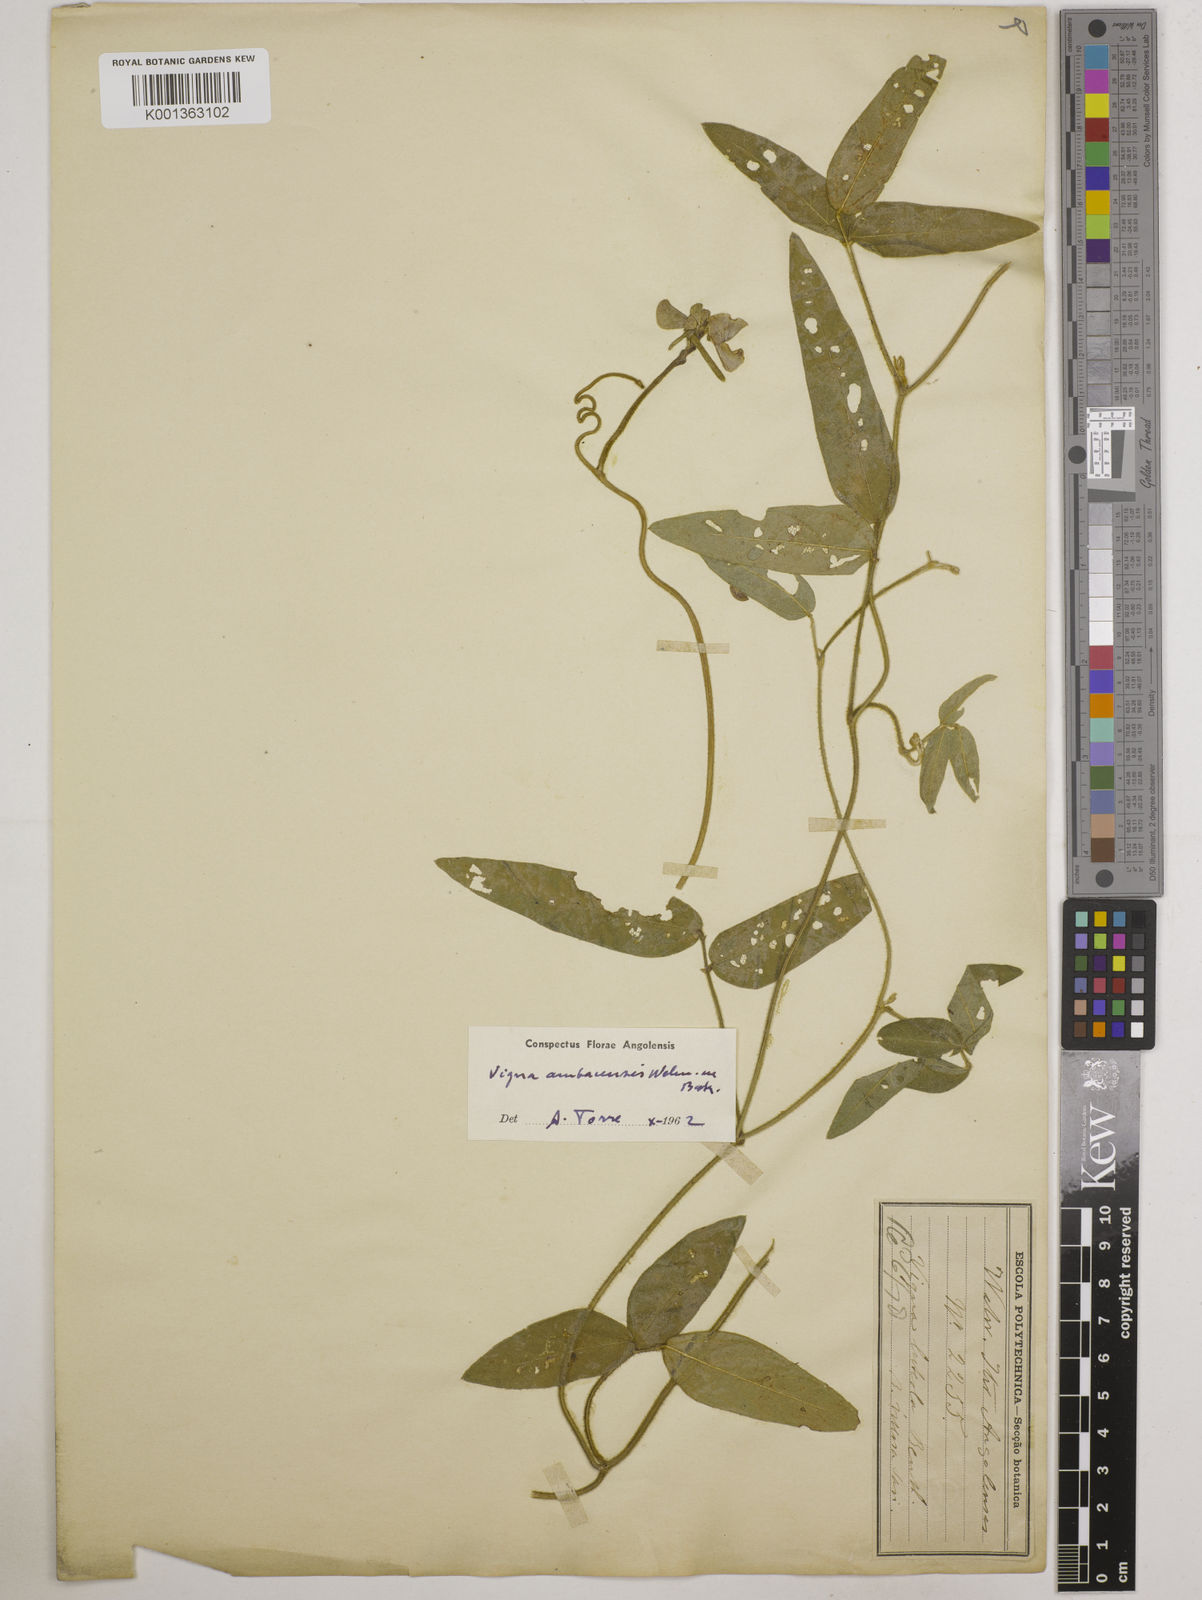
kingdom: Plantae
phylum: Tracheophyta
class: Magnoliopsida
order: Fabales
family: Fabaceae
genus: Vigna
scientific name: Vigna ambacensis
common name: Tsarkiyan zomo
